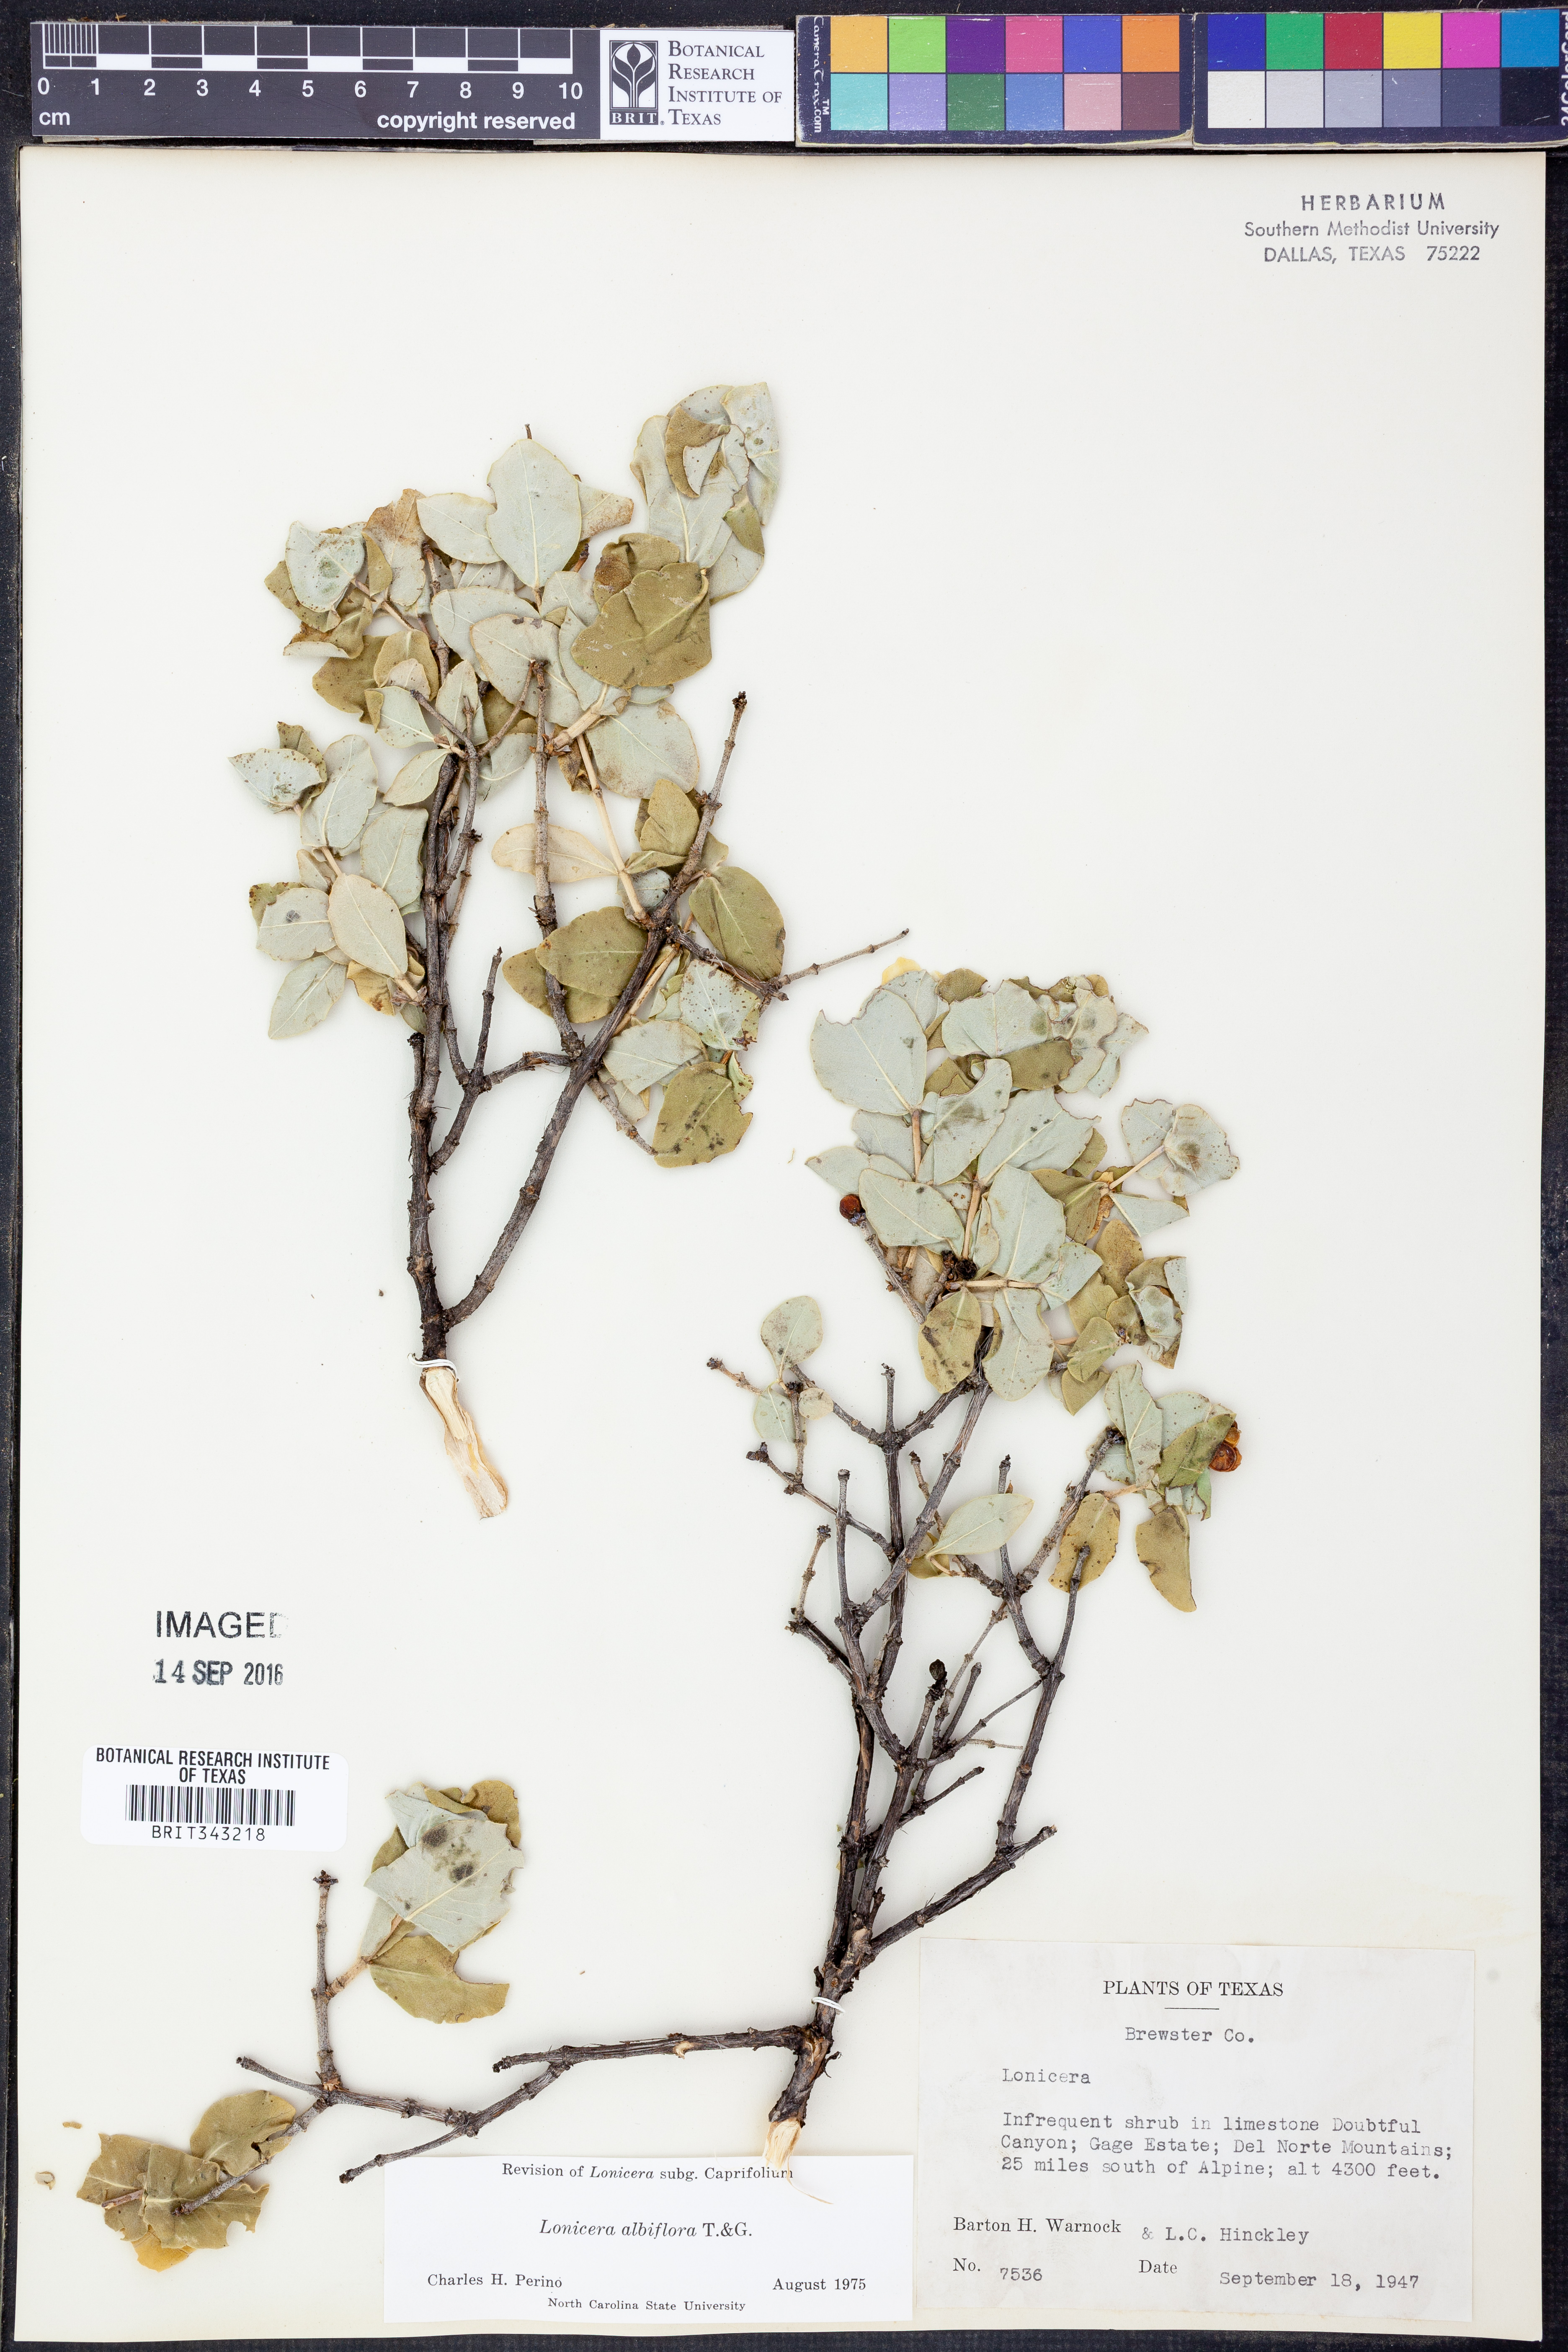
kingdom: Plantae
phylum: Tracheophyta
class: Magnoliopsida
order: Dipsacales
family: Caprifoliaceae
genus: Lonicera
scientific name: Lonicera albiflora
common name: White honeysuckle
